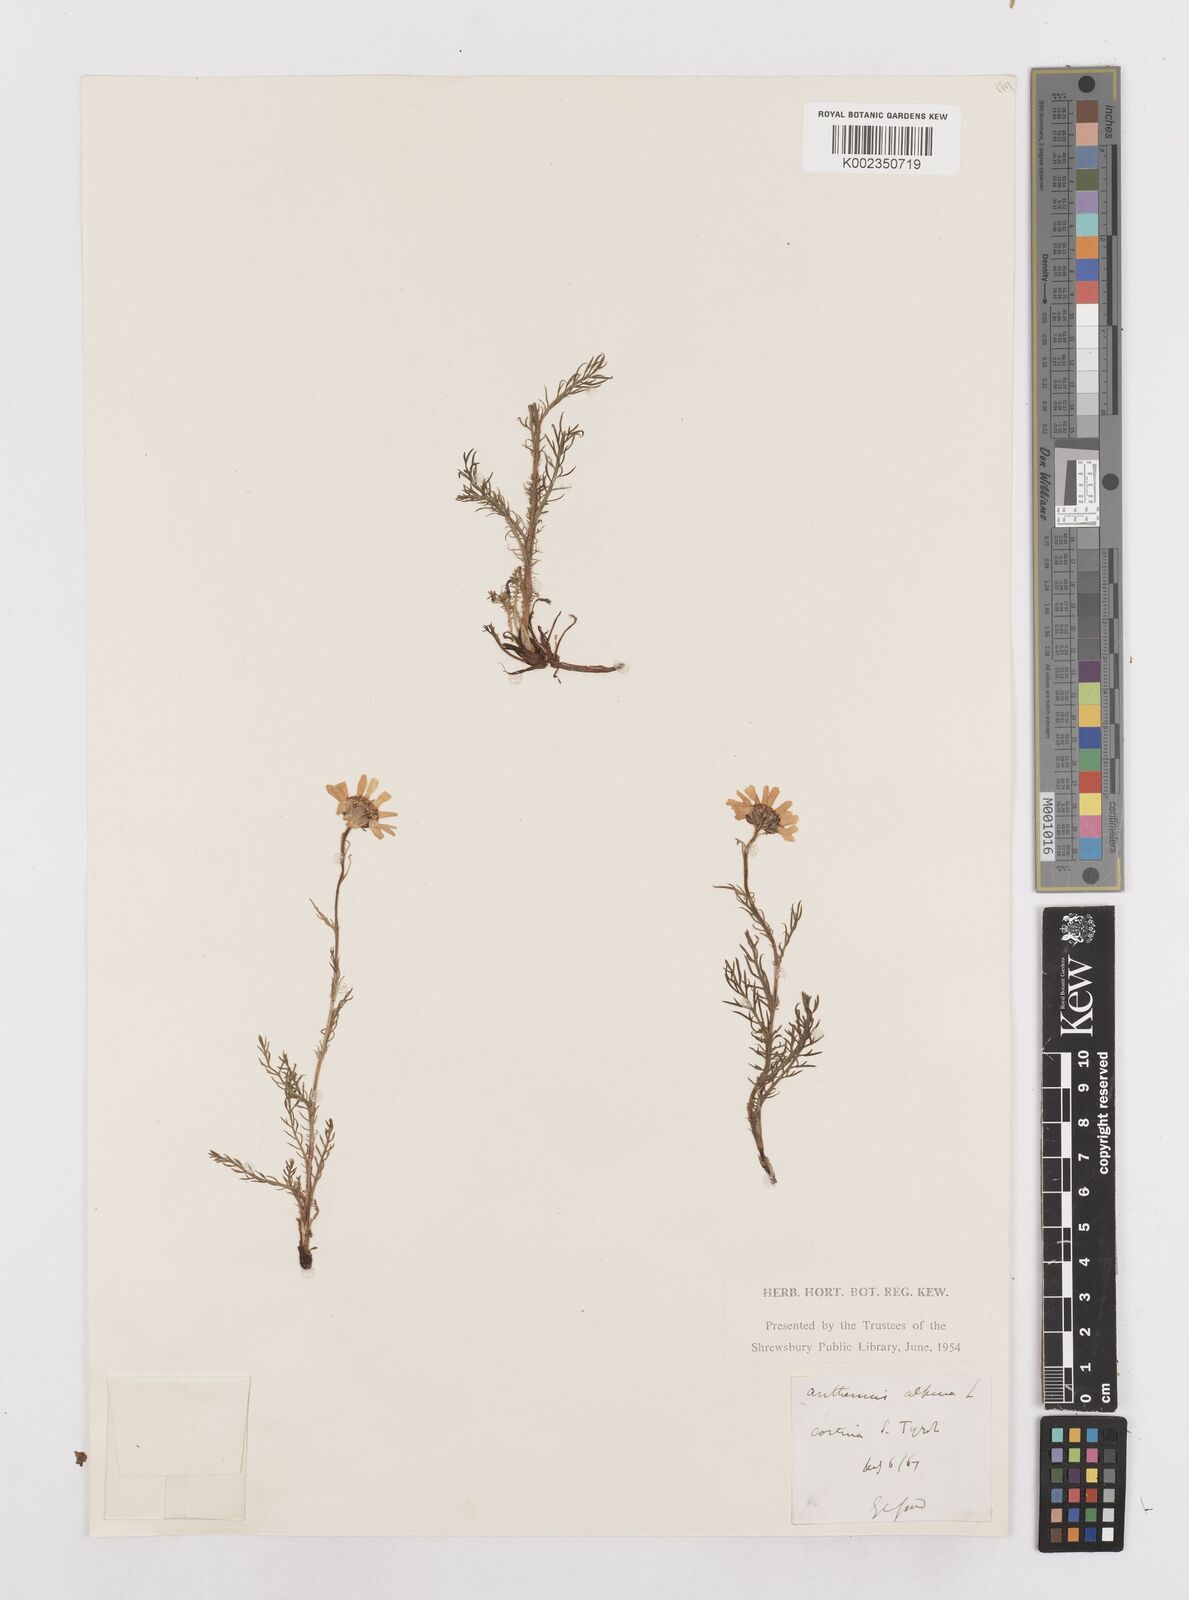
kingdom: Plantae
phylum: Tracheophyta
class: Magnoliopsida
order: Asterales
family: Asteraceae
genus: Achillea
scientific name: Achillea impatiens
